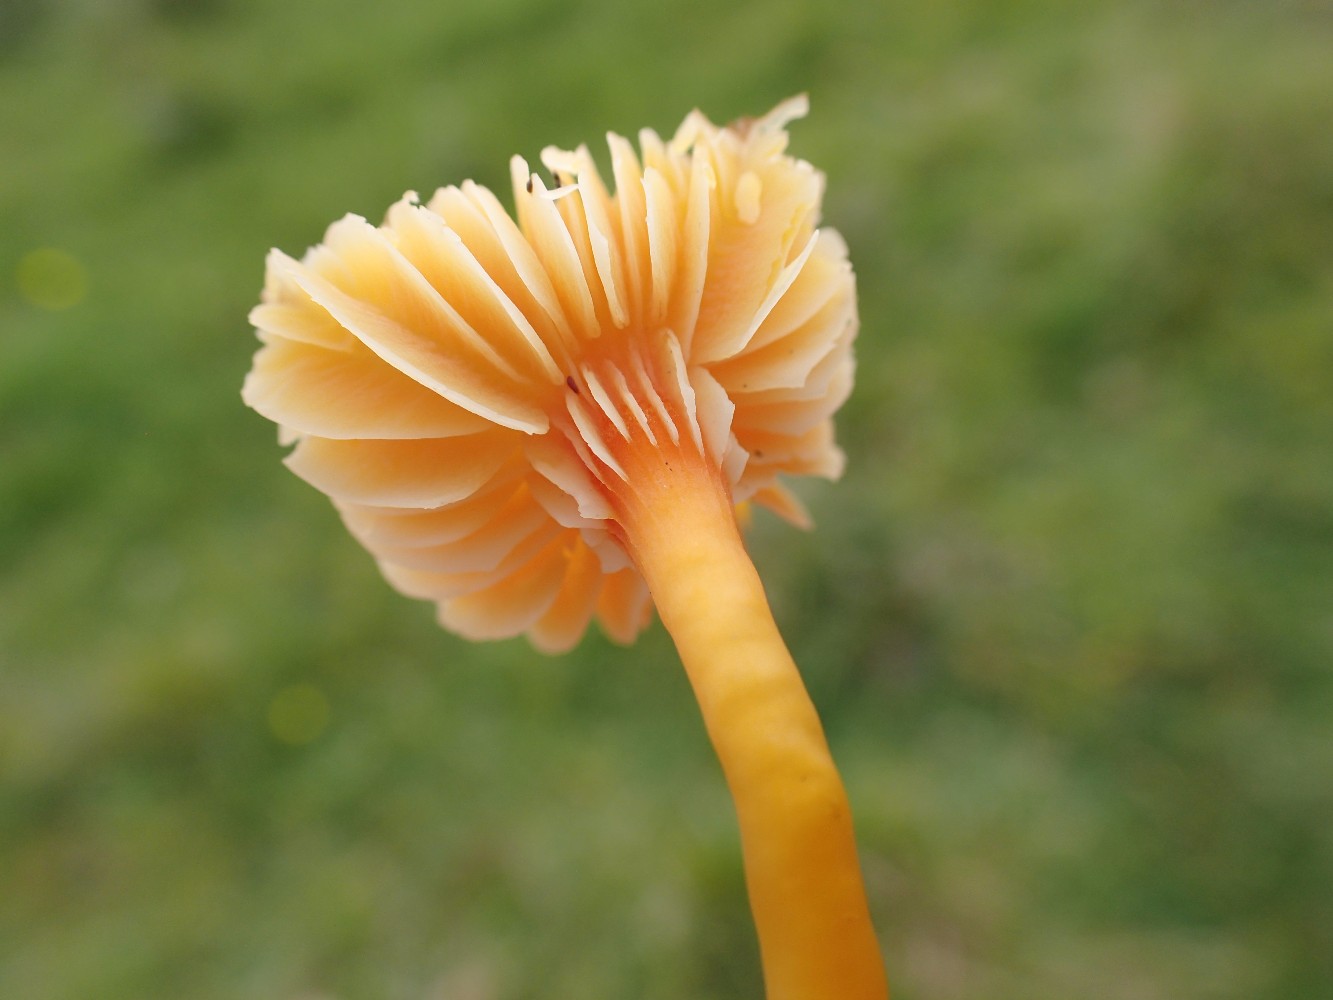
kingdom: Fungi
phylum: Basidiomycota
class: Agaricomycetes
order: Agaricales
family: Hygrophoraceae
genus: Hygrocybe
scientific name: Hygrocybe
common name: vokshat
